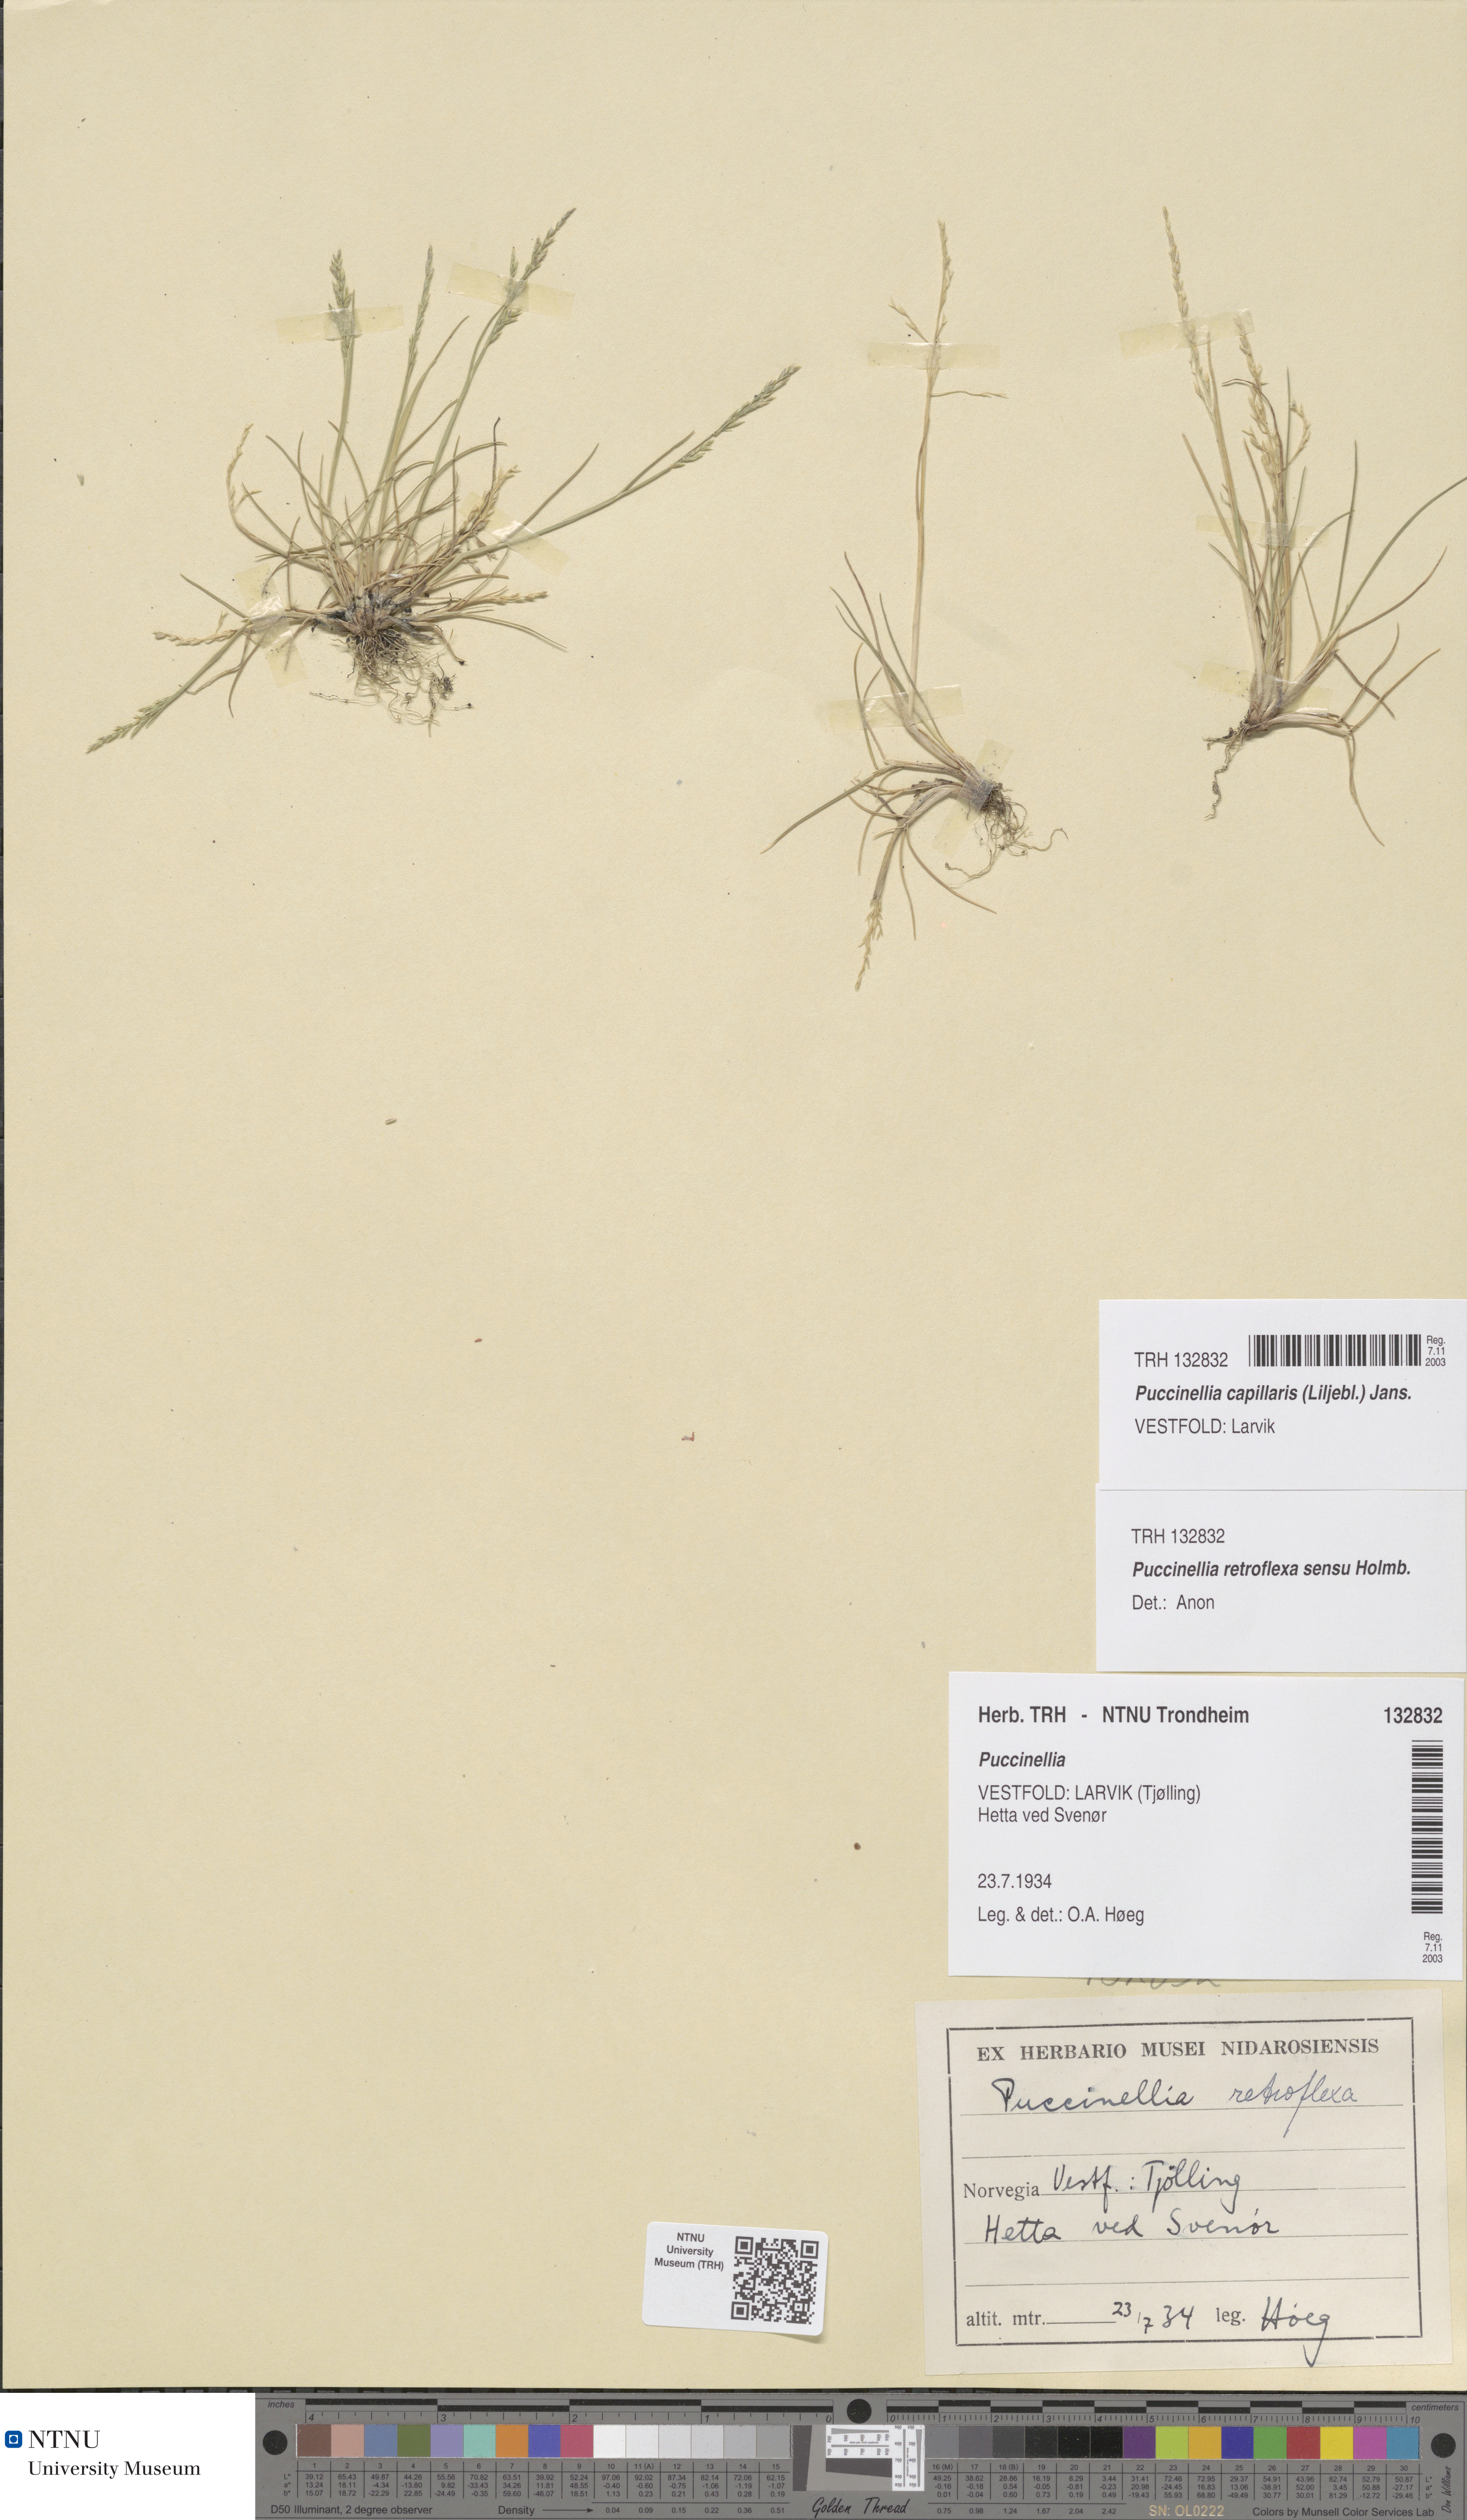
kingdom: Plantae
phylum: Tracheophyta
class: Liliopsida
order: Poales
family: Poaceae
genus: Puccinellia
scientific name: Puccinellia distans
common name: Weeping alkaligrass
